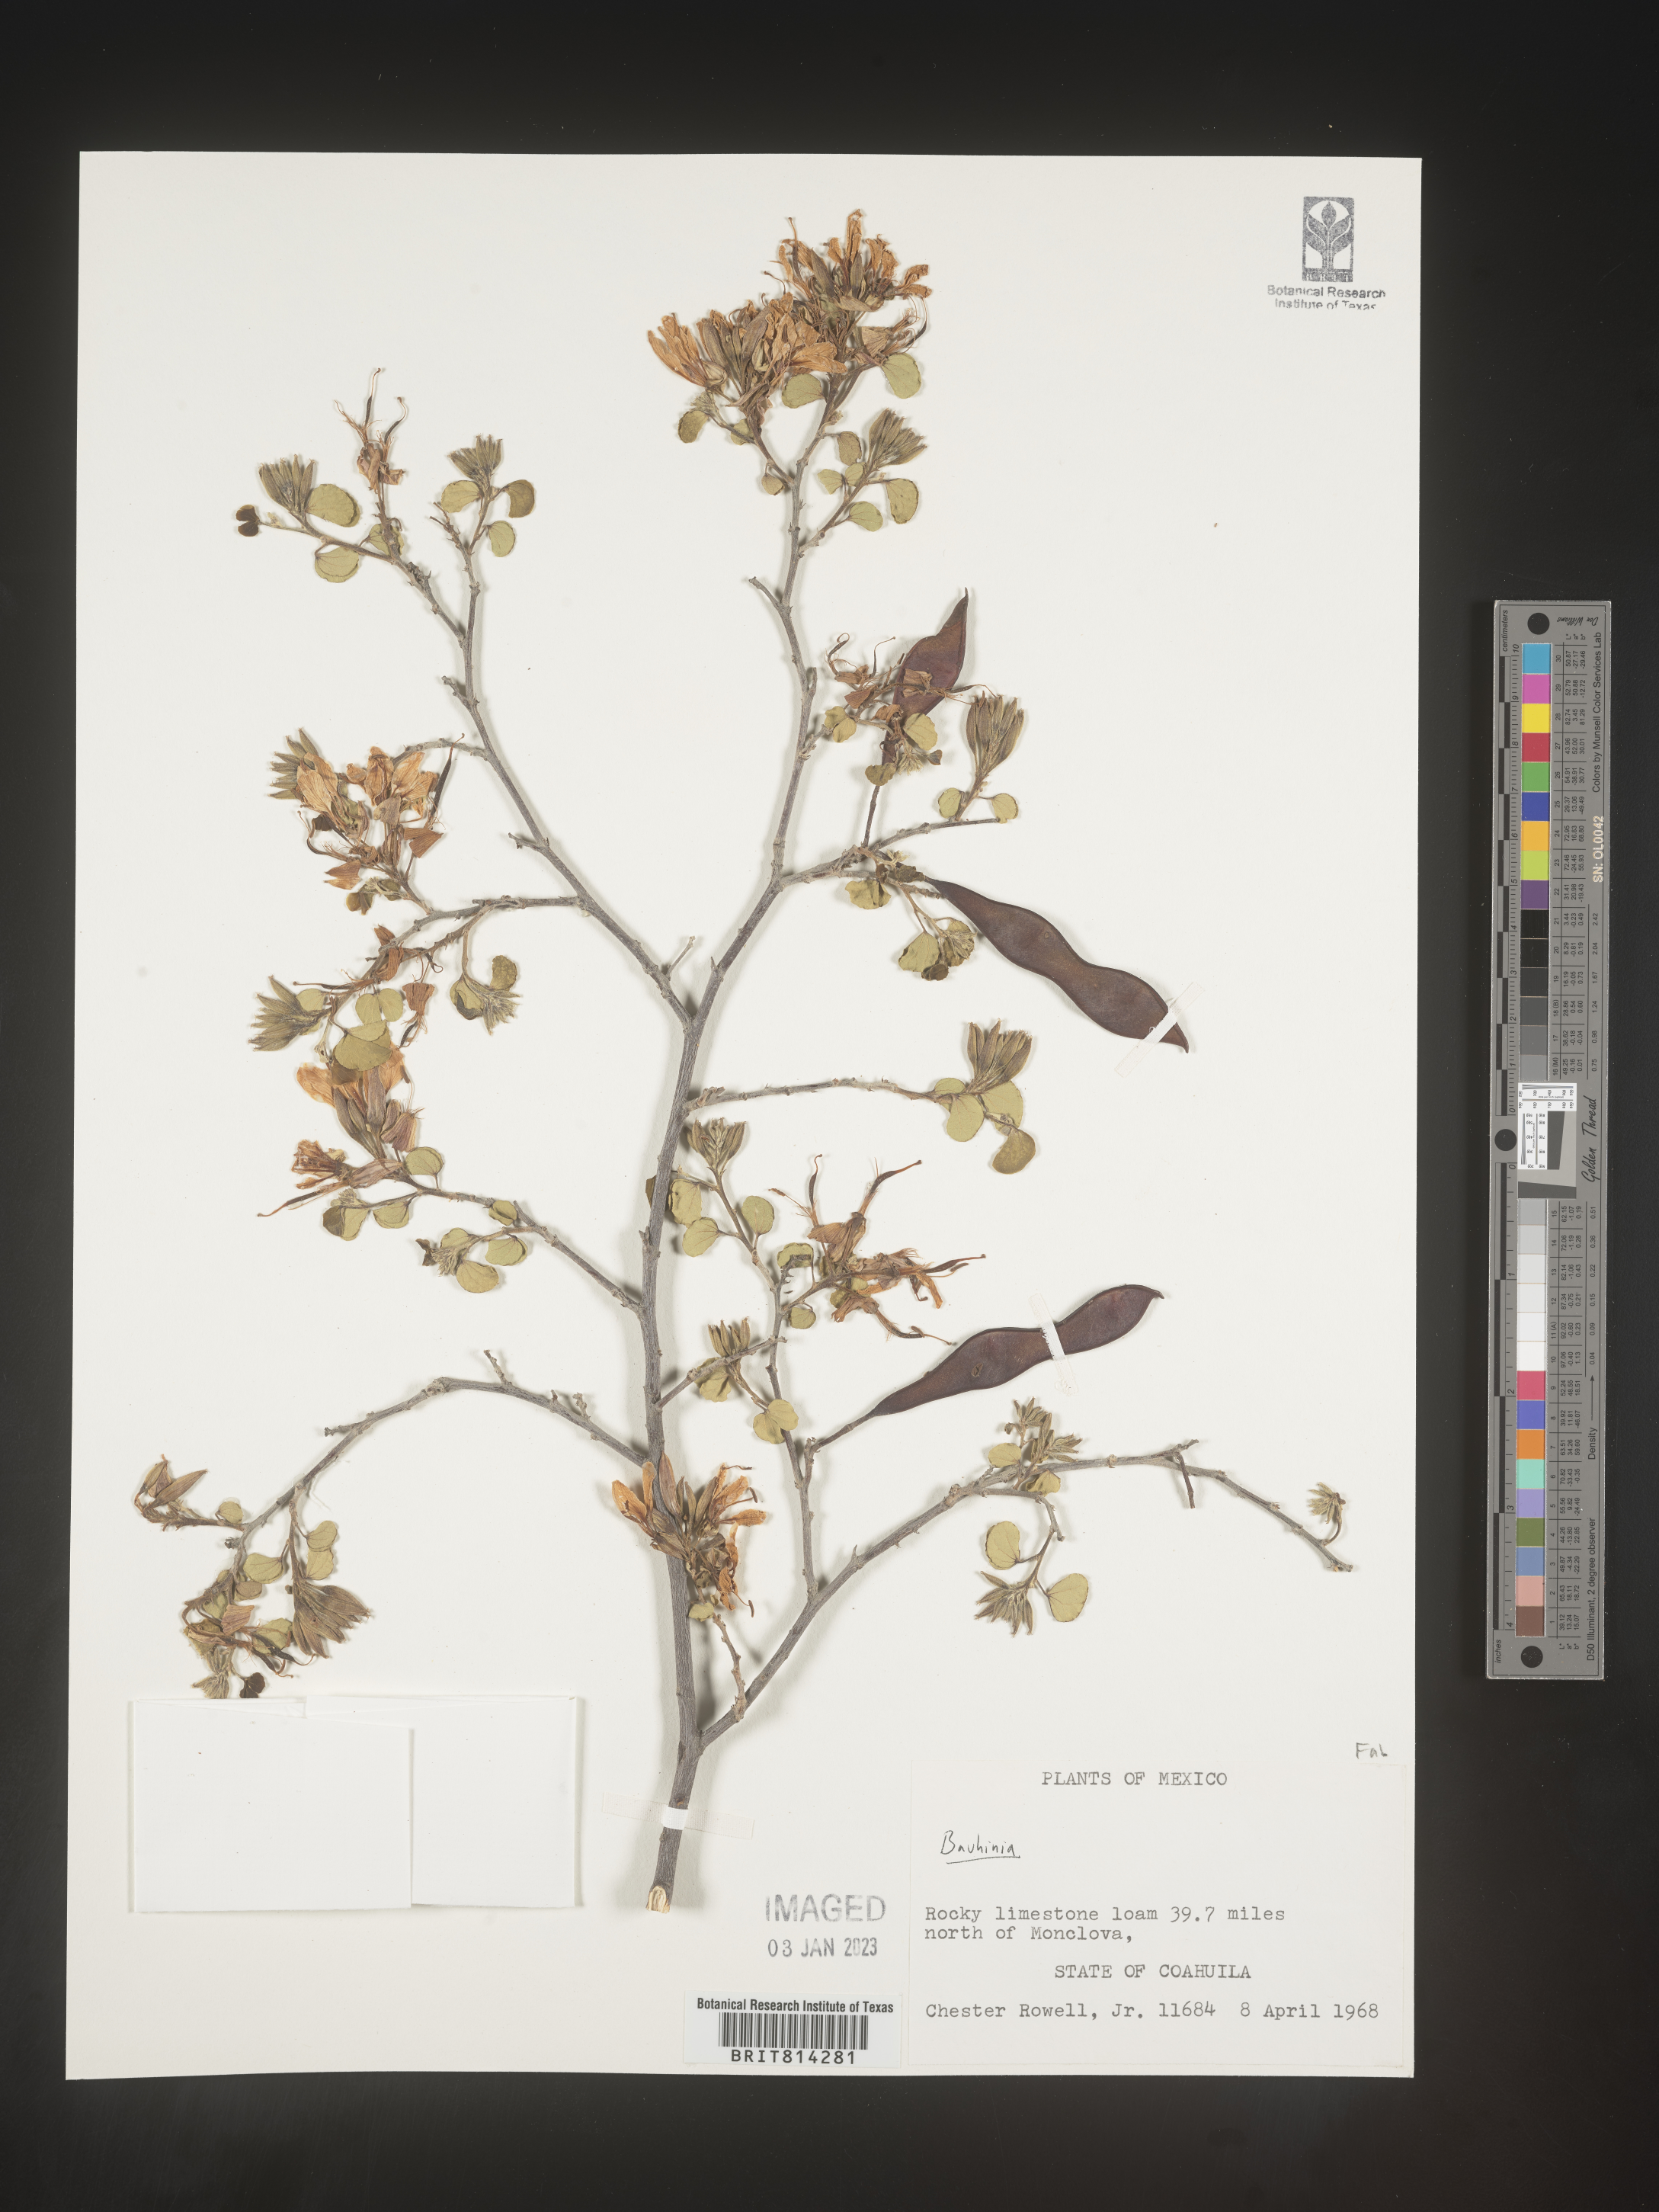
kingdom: Plantae
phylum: Tracheophyta
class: Magnoliopsida
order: Fabales
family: Fabaceae
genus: Bauhinia
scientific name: Bauhinia
